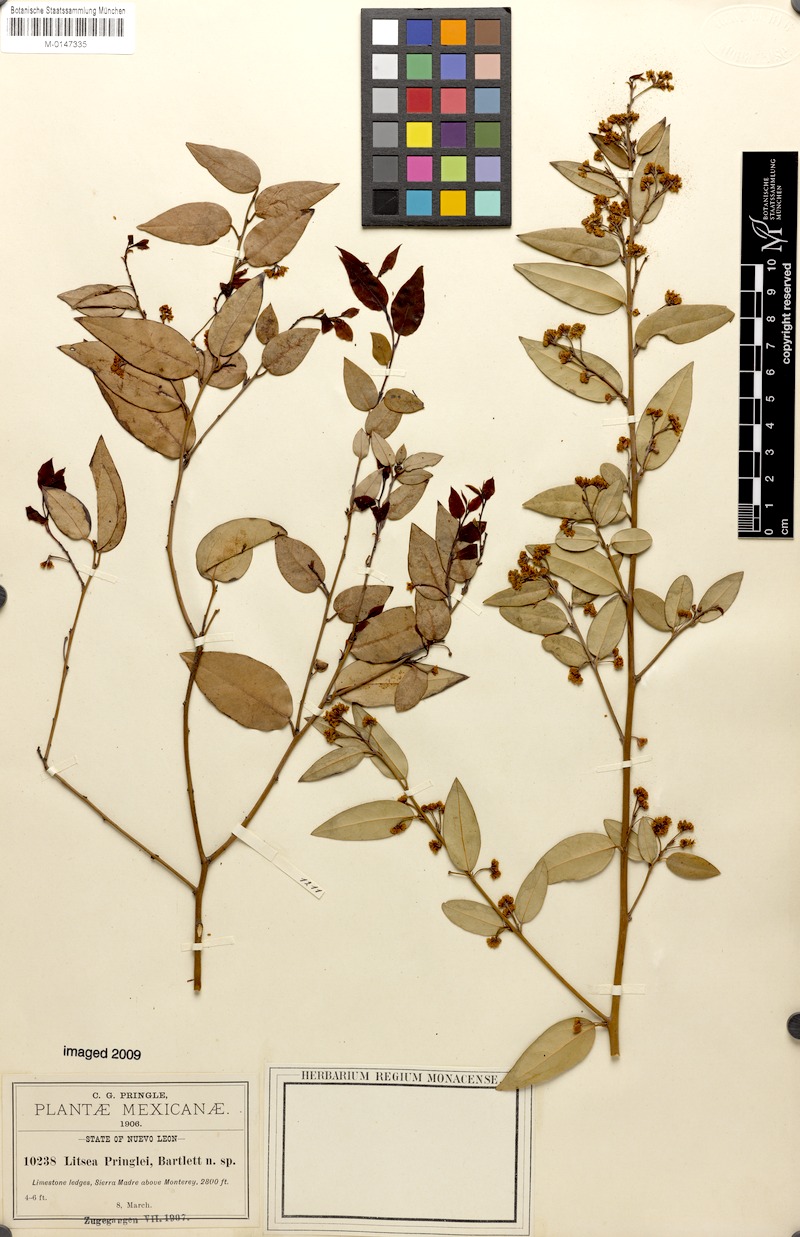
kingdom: Plantae
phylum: Tracheophyta
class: Magnoliopsida
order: Laurales
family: Lauraceae
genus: Licaria
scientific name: Licaria triandra
